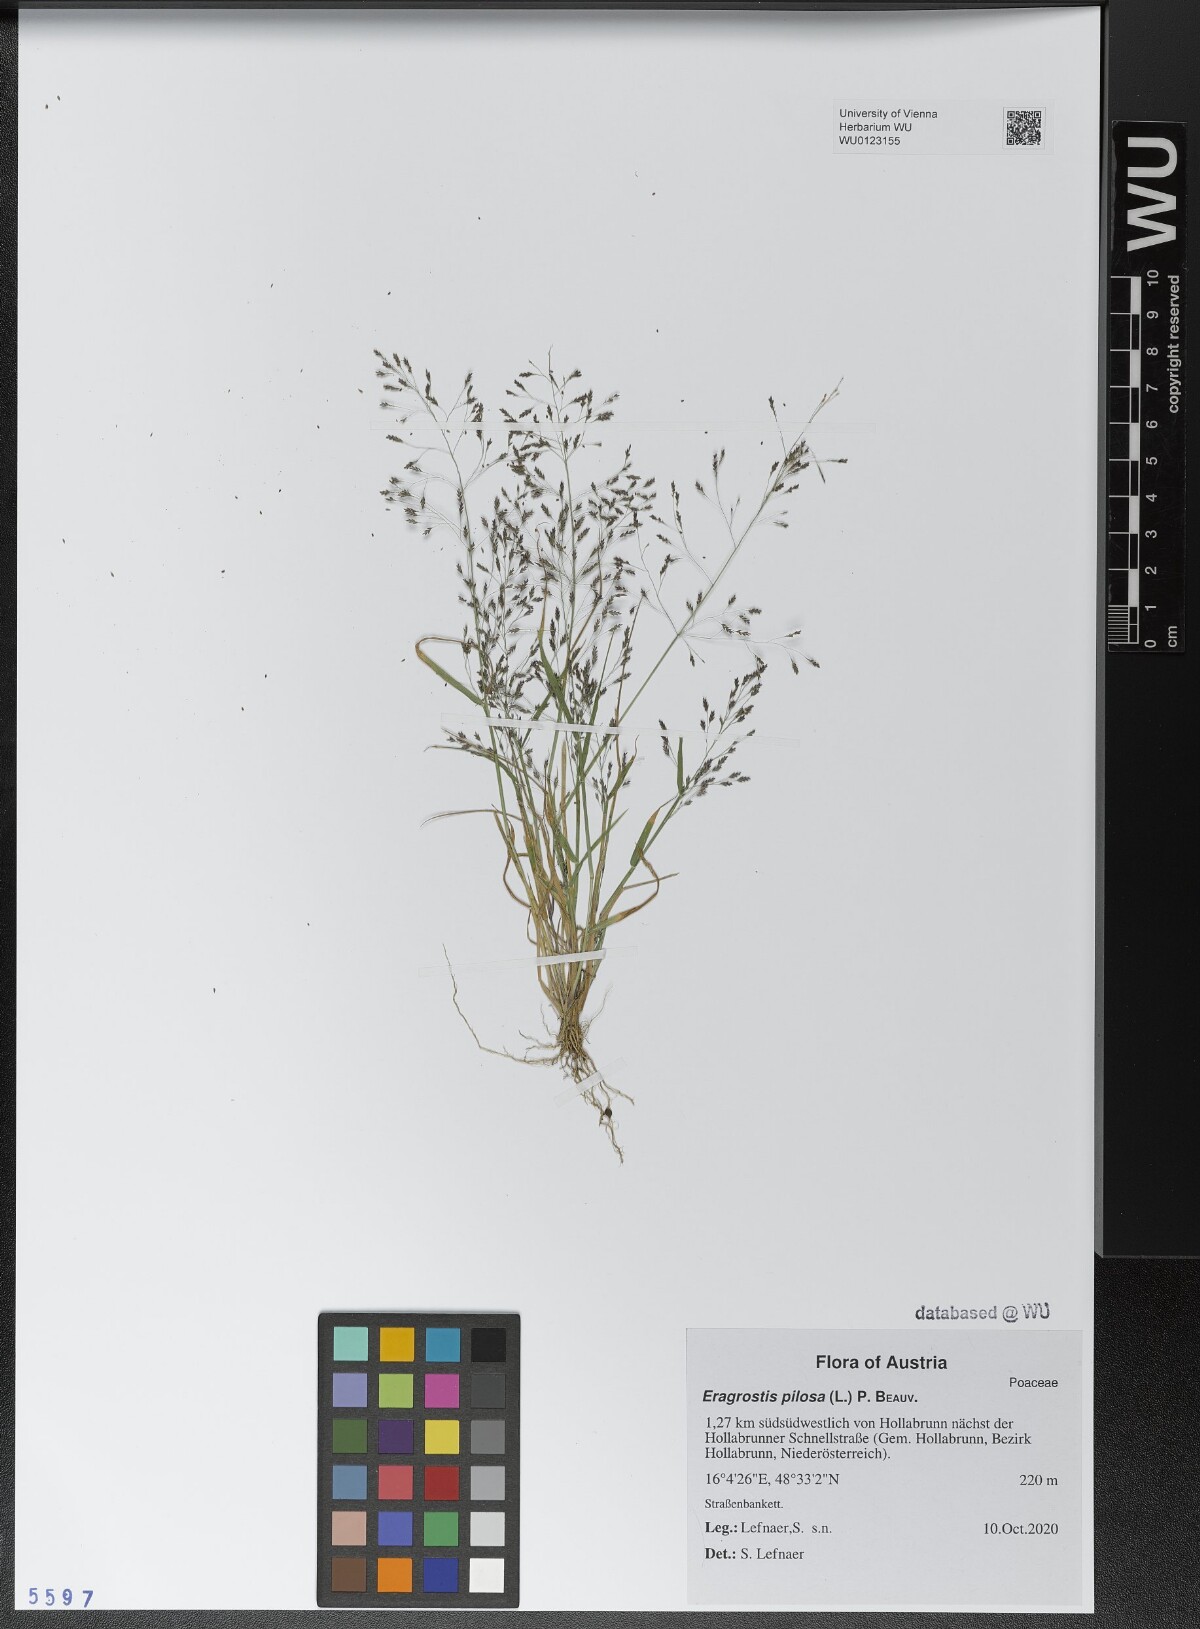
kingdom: Plantae
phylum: Tracheophyta
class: Liliopsida
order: Poales
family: Poaceae
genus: Eragrostis
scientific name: Eragrostis pilosa
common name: Indian lovegrass
